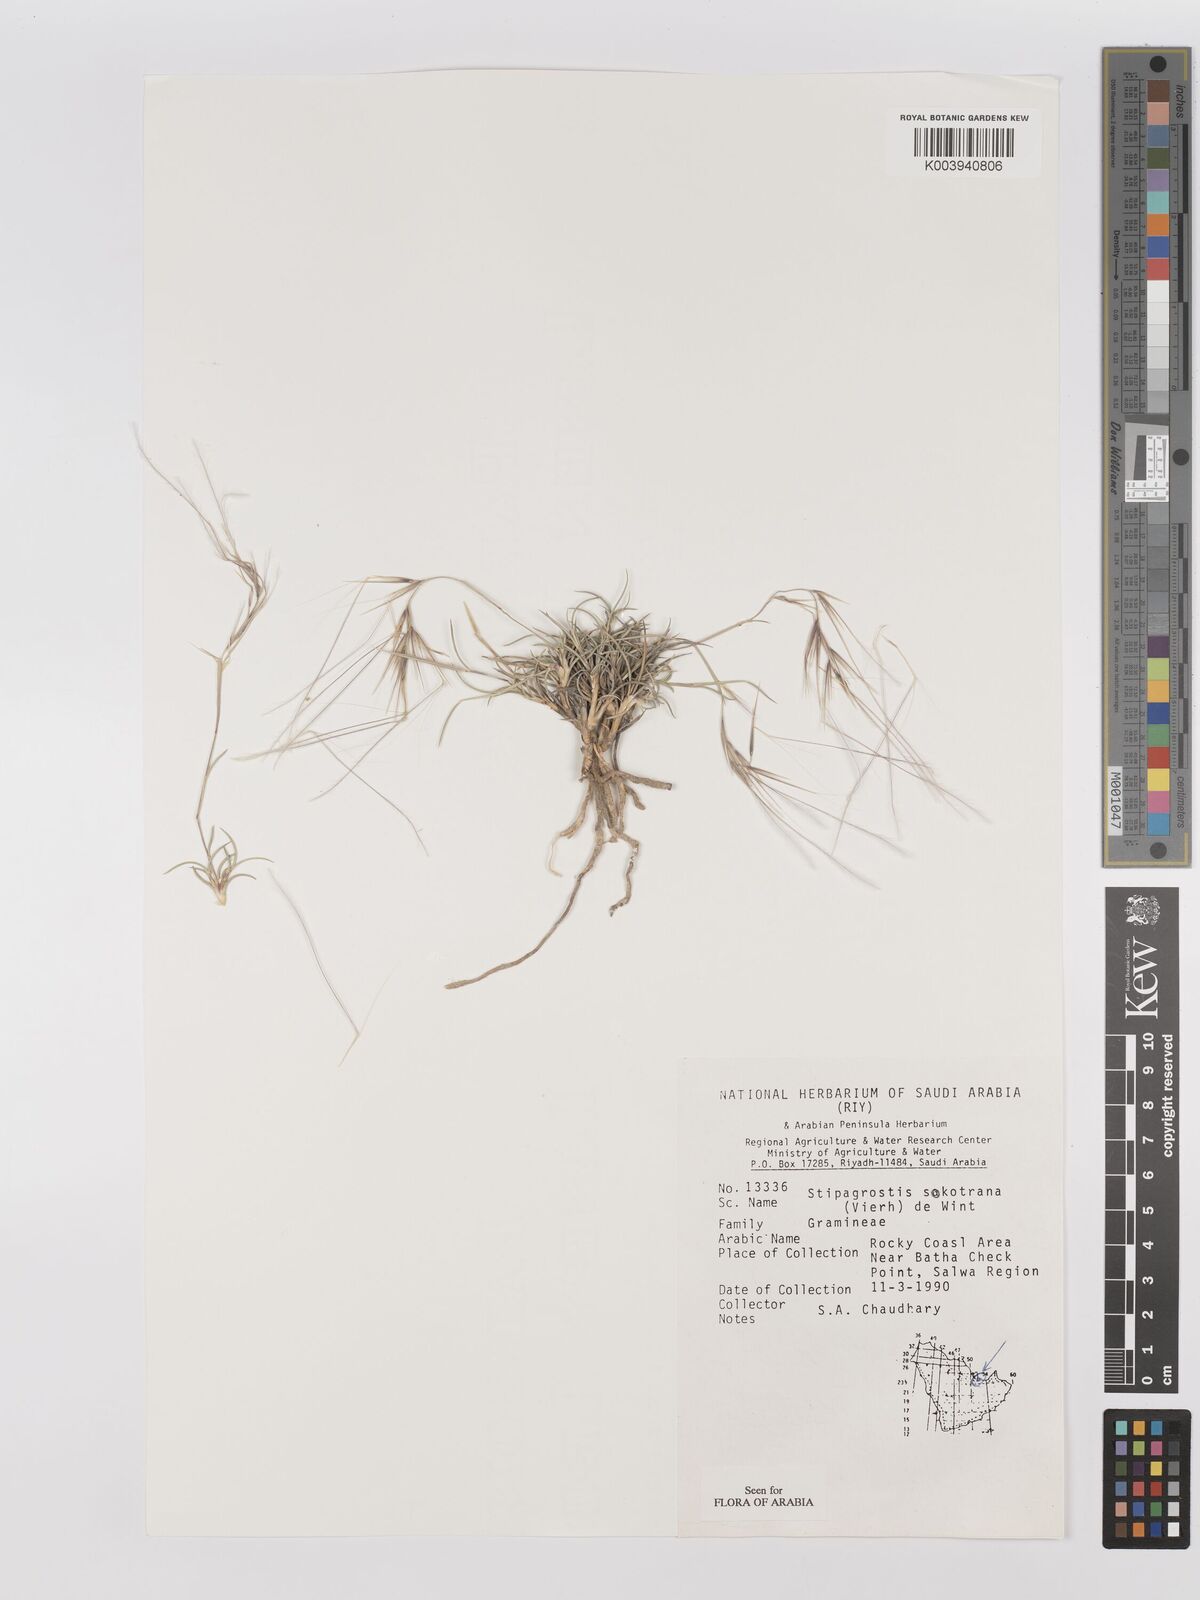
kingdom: Plantae
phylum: Tracheophyta
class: Liliopsida
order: Poales
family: Poaceae
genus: Stipagrostis
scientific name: Stipagrostis sokotrana
